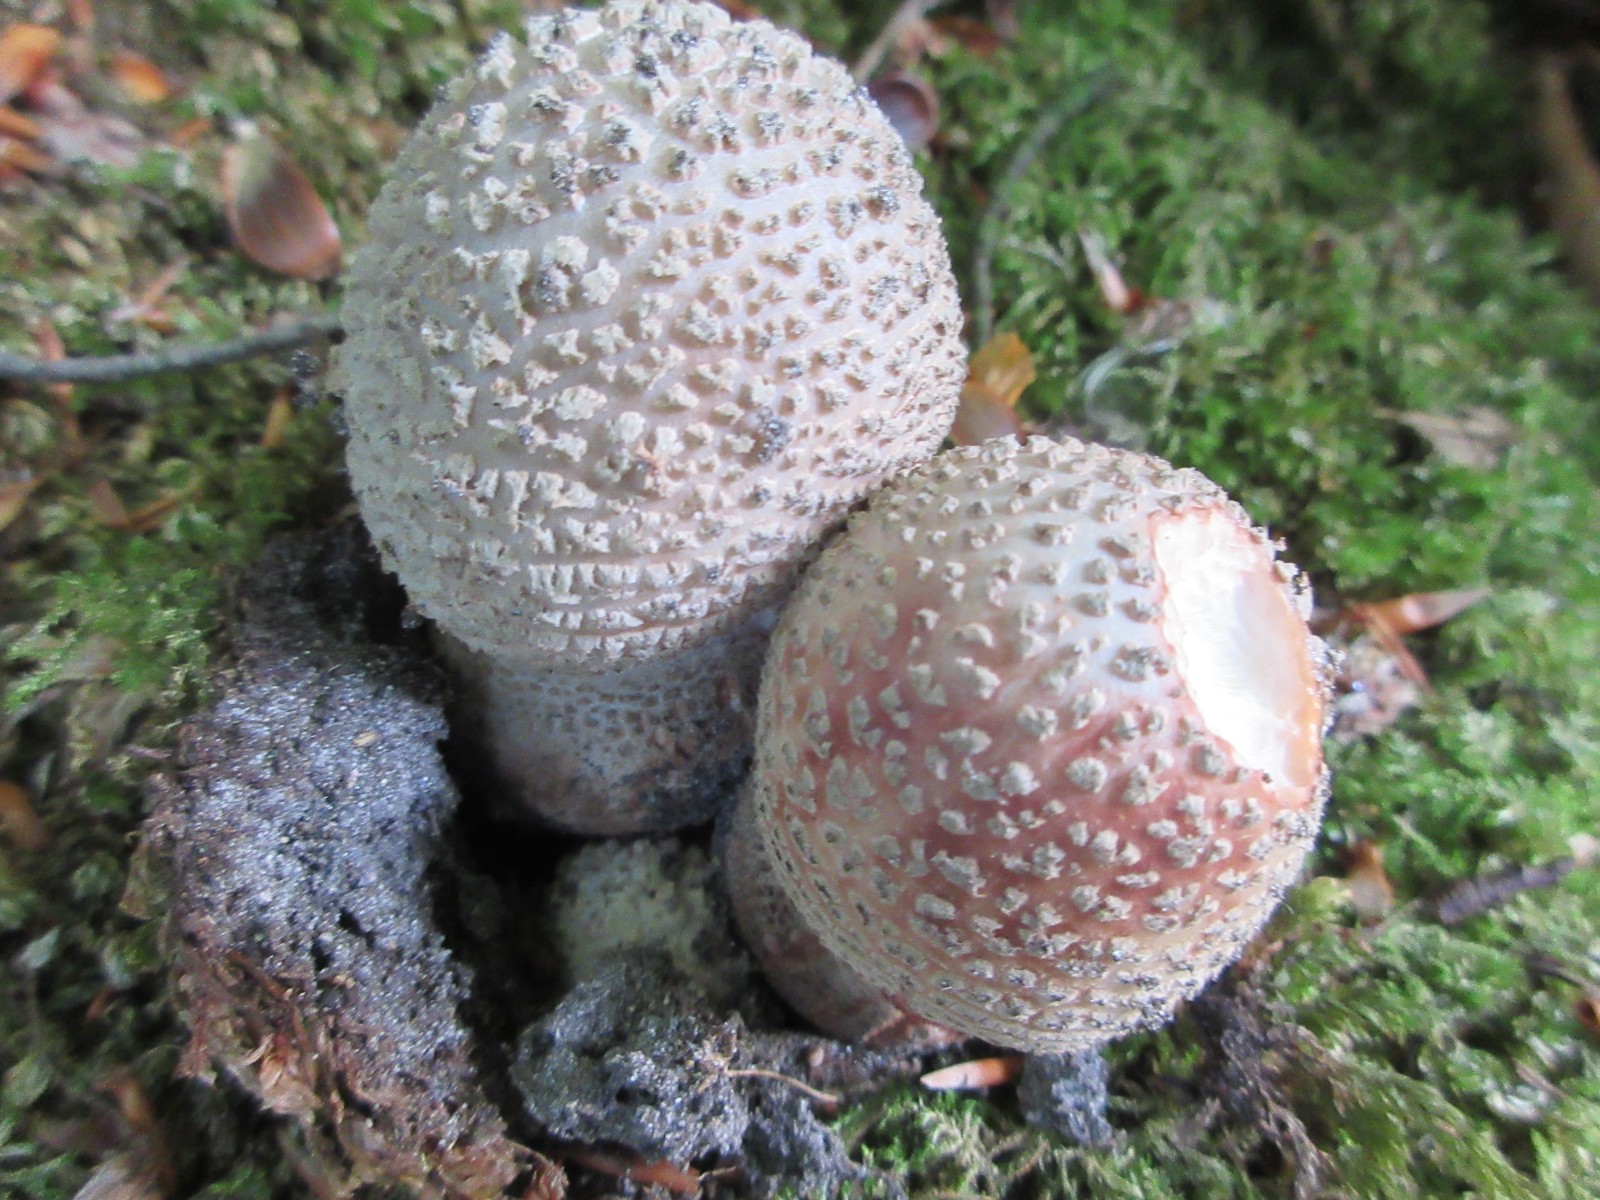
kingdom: Fungi
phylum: Basidiomycota
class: Agaricomycetes
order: Agaricales
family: Amanitaceae
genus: Amanita
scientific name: Amanita rubescens
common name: rødmende fluesvamp
